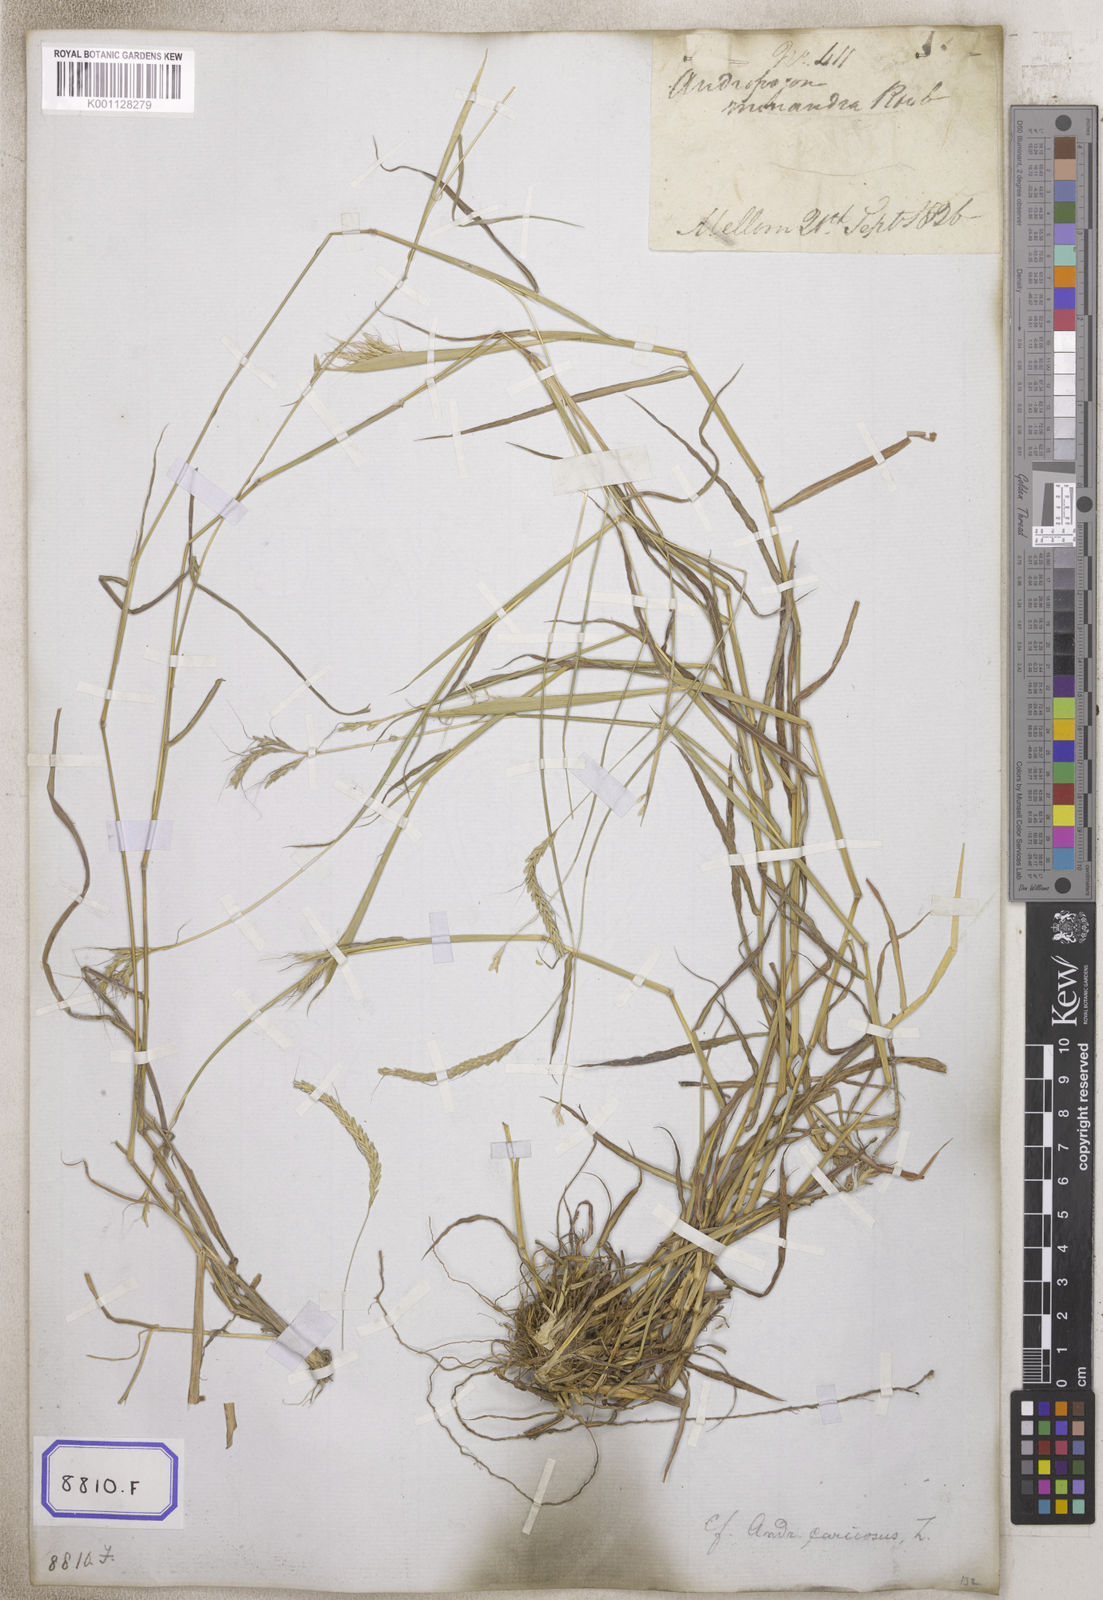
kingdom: Plantae
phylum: Tracheophyta
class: Liliopsida
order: Poales
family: Poaceae
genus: Andropogon
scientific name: Andropogon
